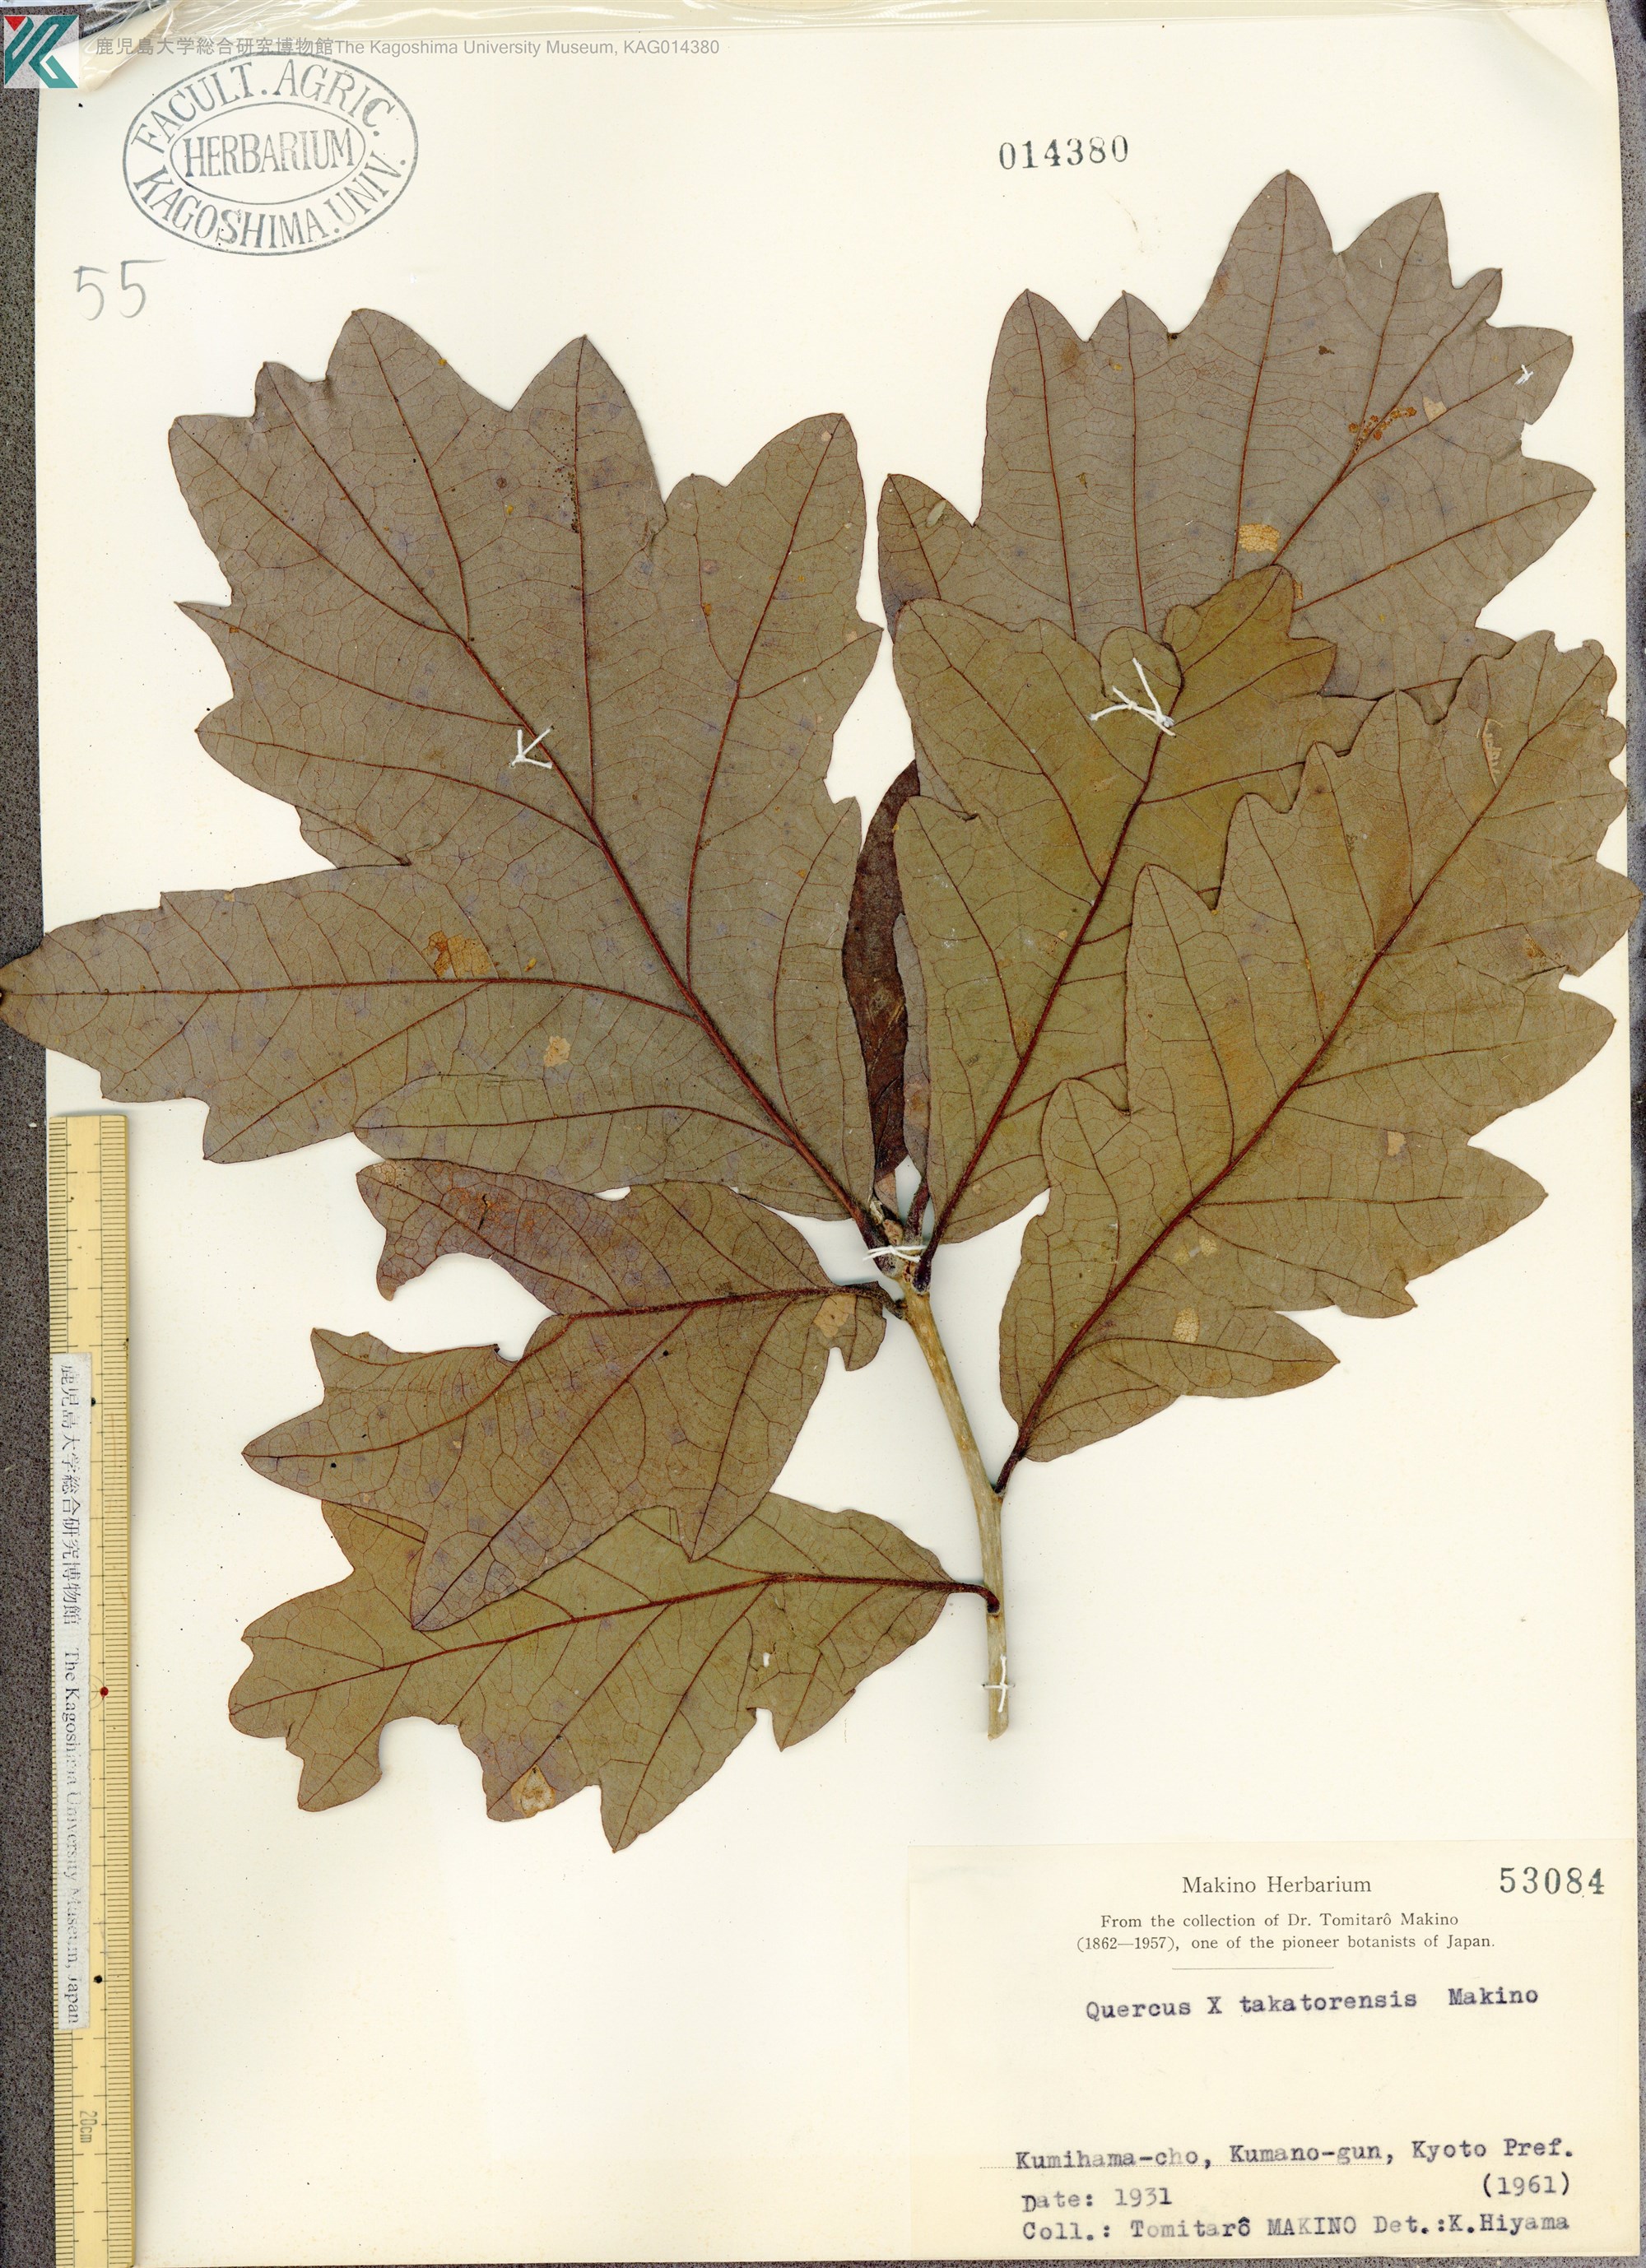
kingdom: Plantae
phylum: Tracheophyta
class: Magnoliopsida
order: Fagales
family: Fagaceae
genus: Quercus
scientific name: Quercus
